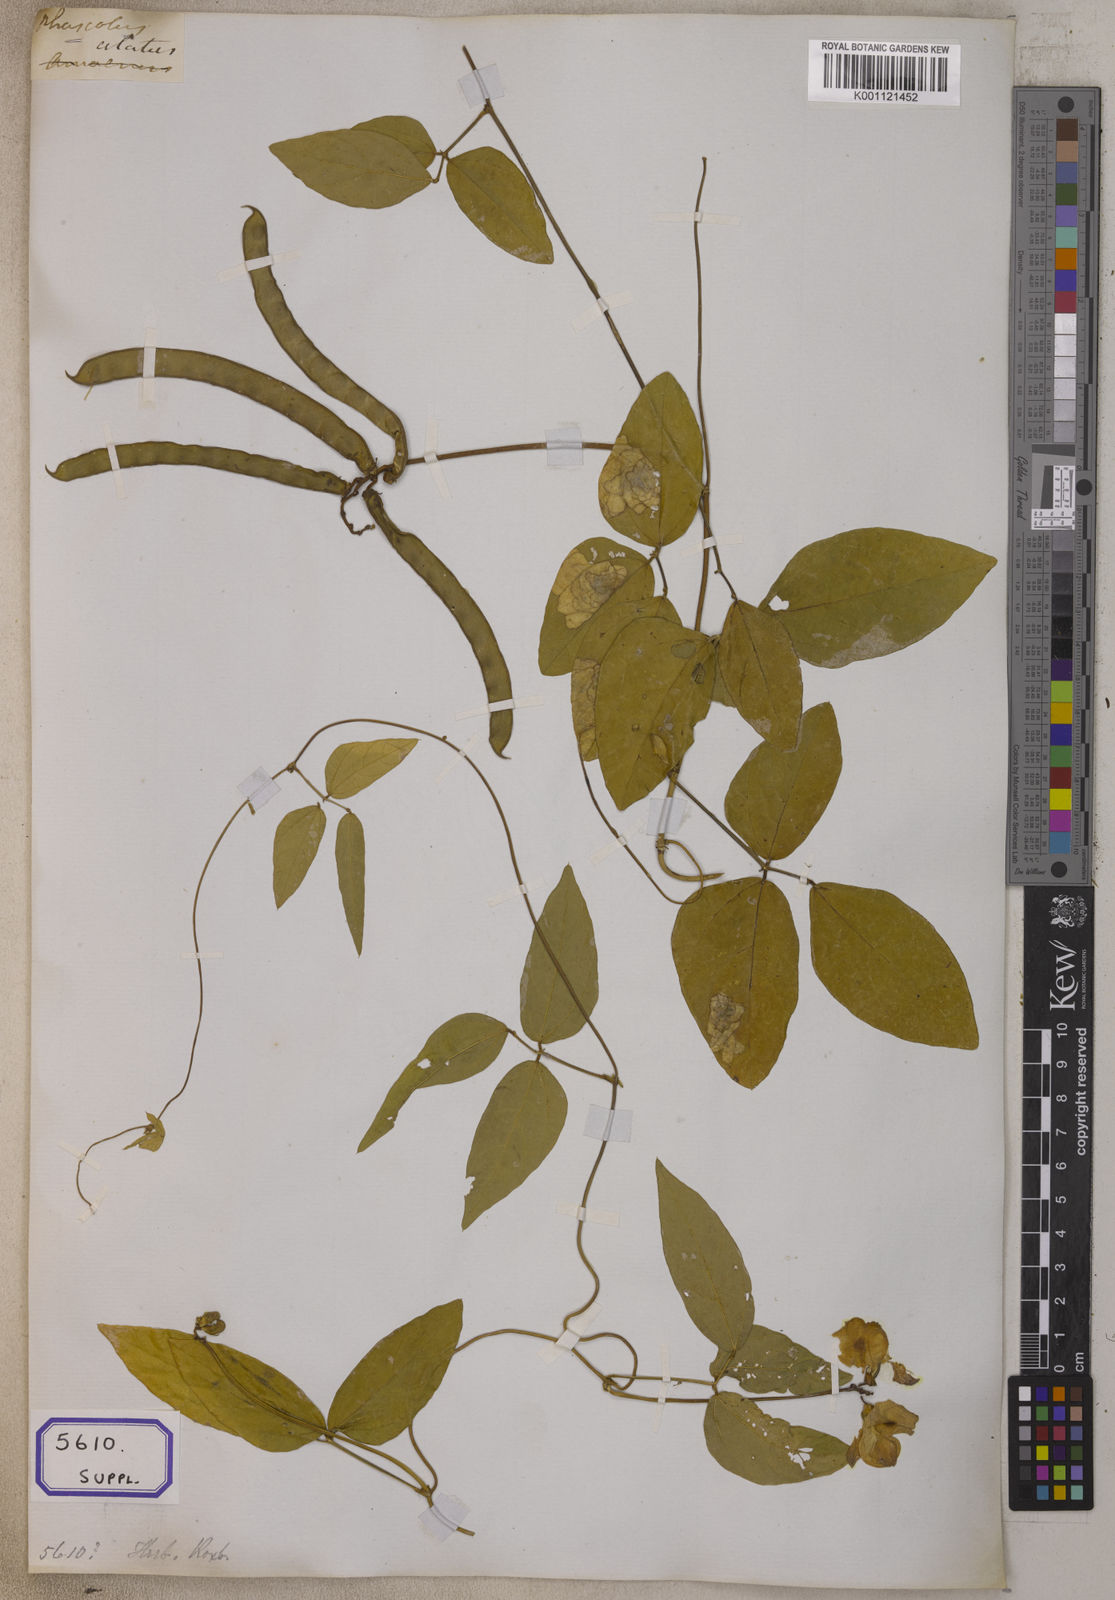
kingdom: Plantae
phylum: Tracheophyta
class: Magnoliopsida
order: Fabales
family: Fabaceae
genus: Leptospron
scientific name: Leptospron adenanthum
